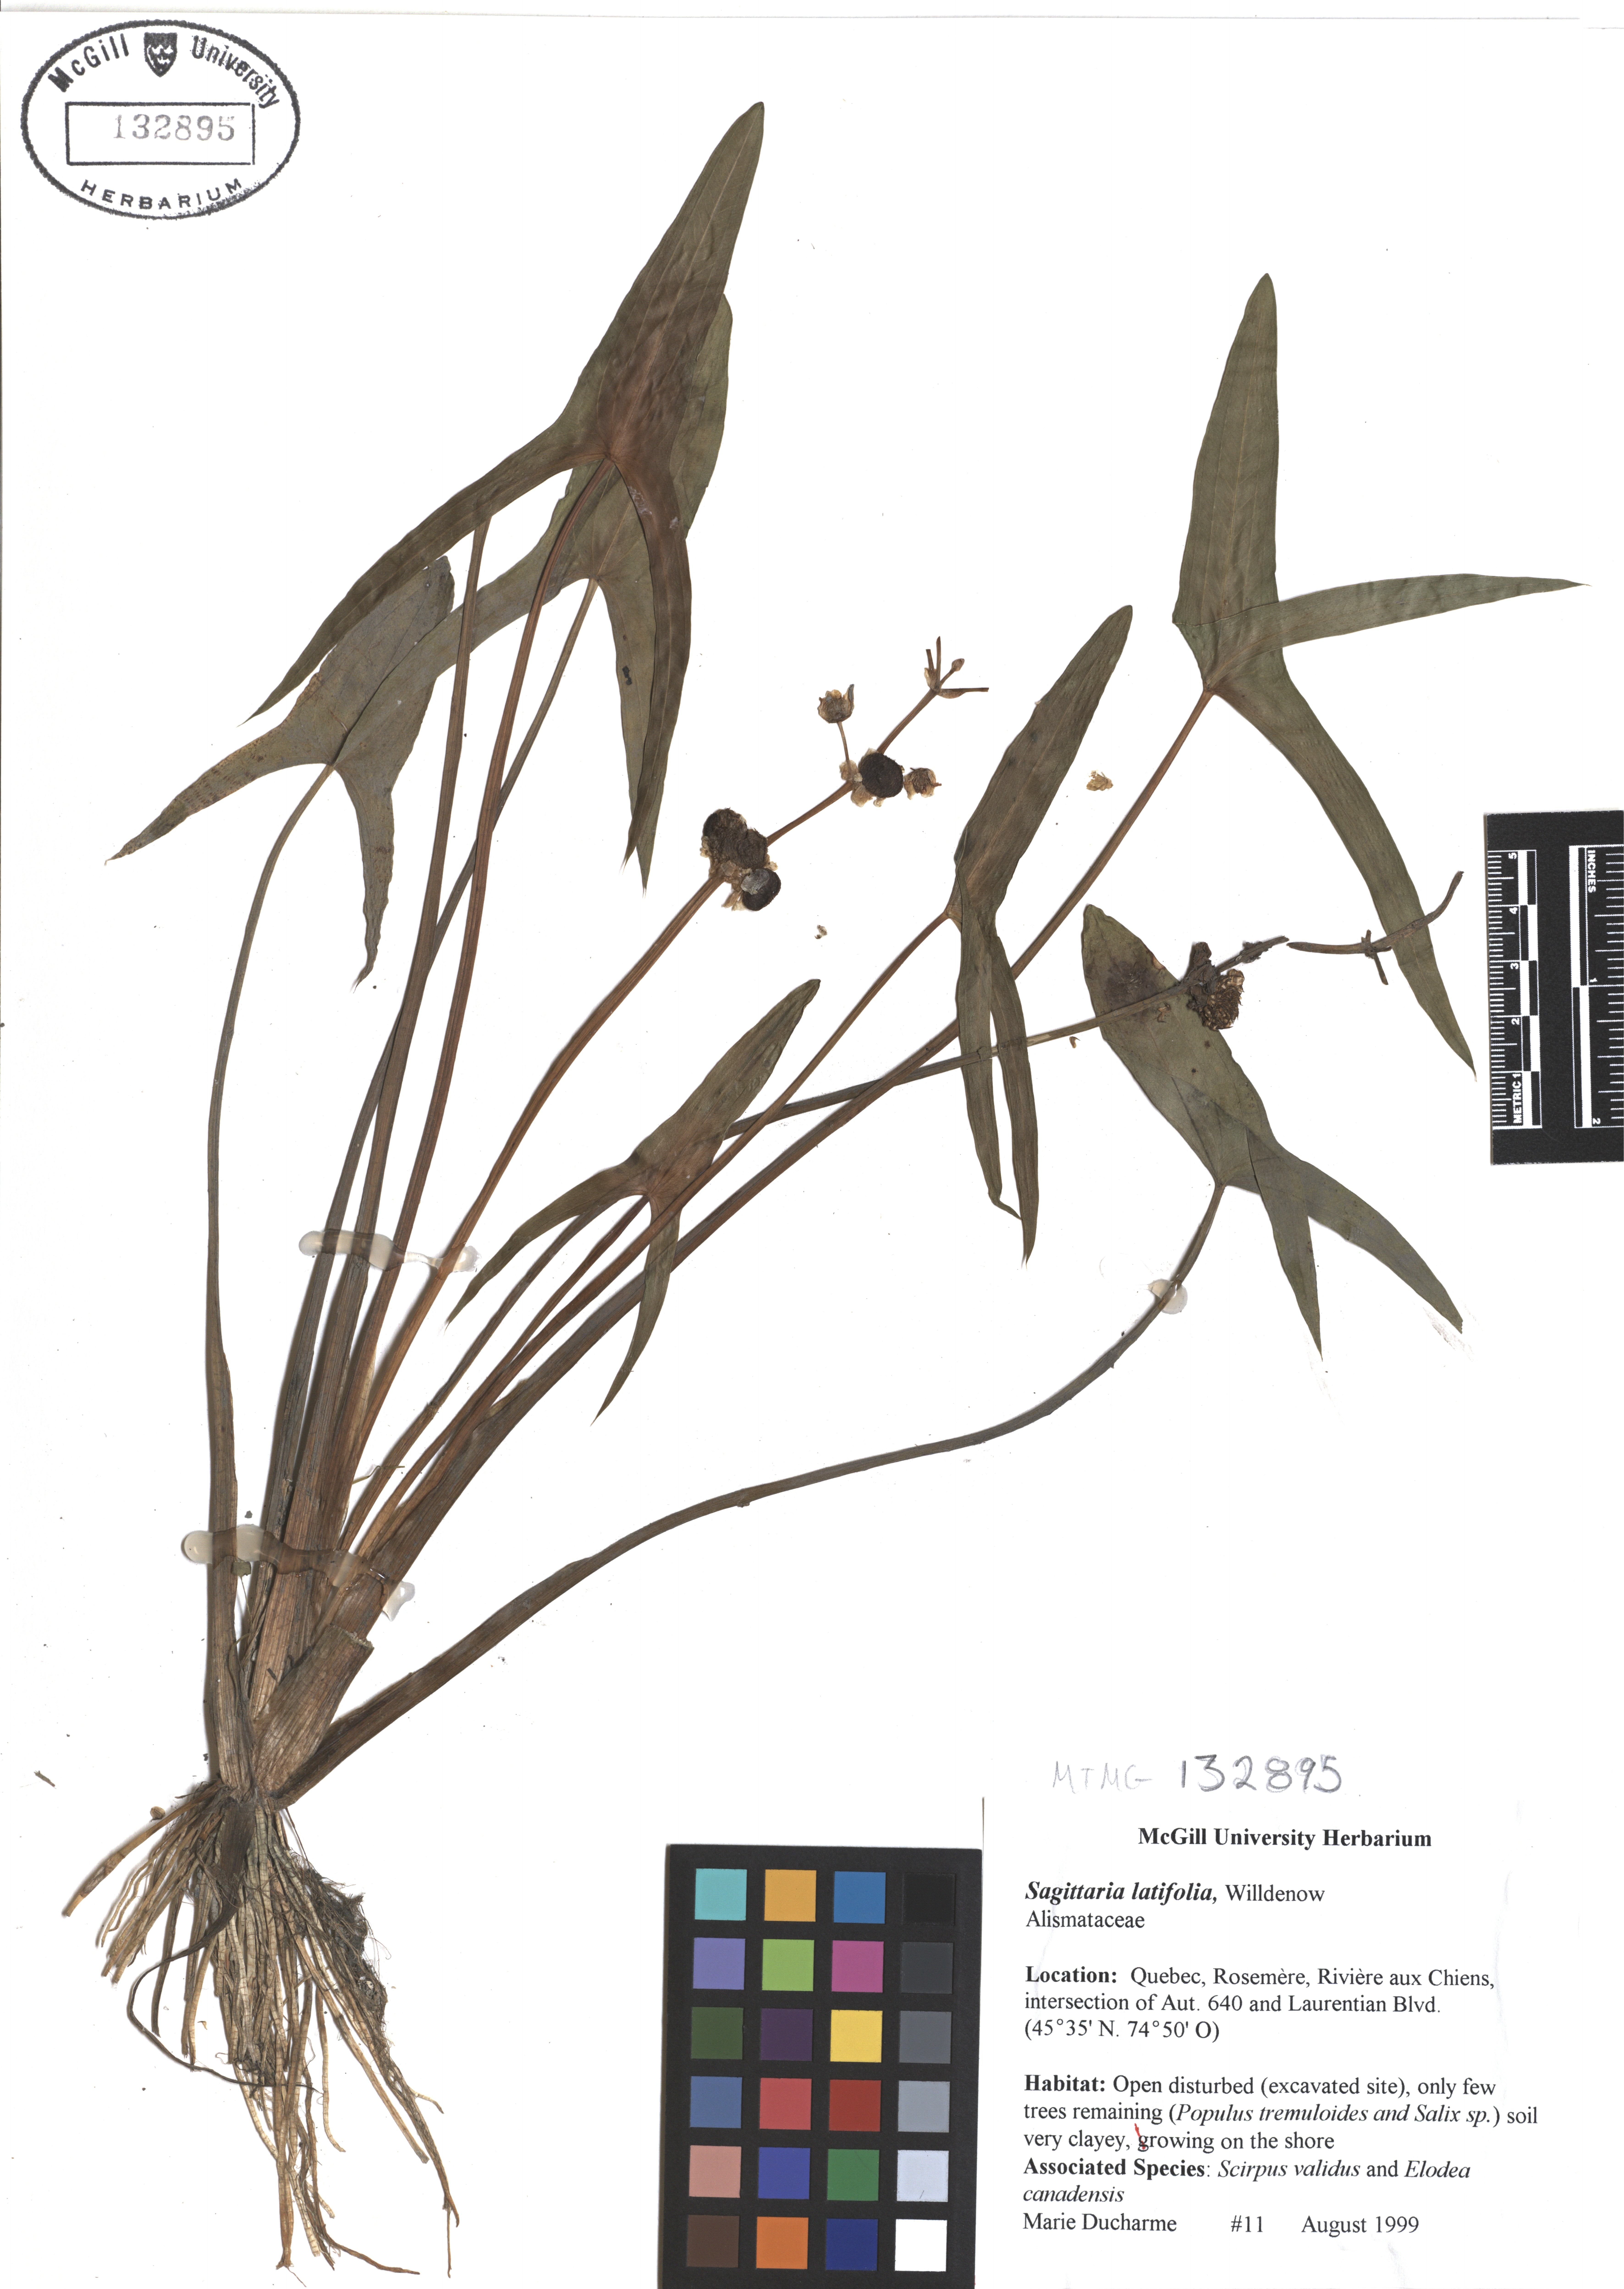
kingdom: Plantae
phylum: Tracheophyta
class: Liliopsida
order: Alismatales
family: Alismataceae
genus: Sagittaria
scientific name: Sagittaria latifolia
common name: Duck-potato
